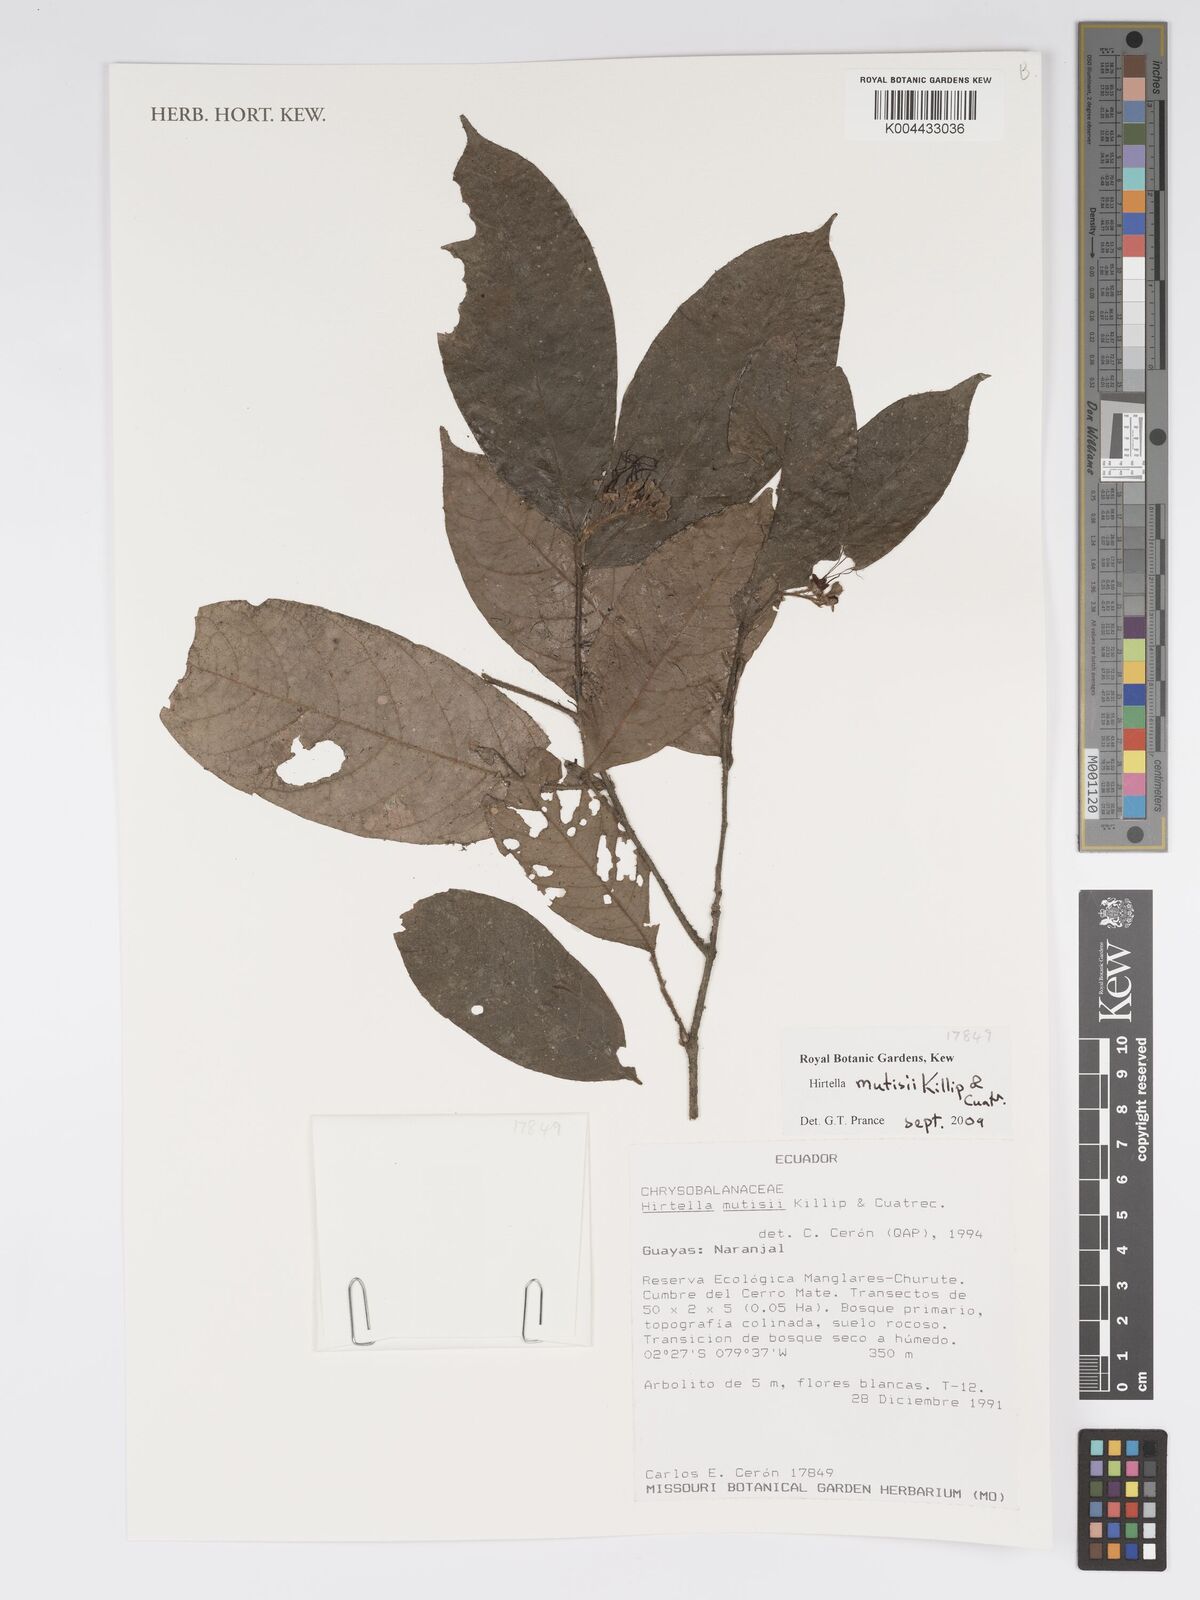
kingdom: Plantae
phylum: Tracheophyta
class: Magnoliopsida
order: Malpighiales
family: Chrysobalanaceae
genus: Hirtella
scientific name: Hirtella mutisii
